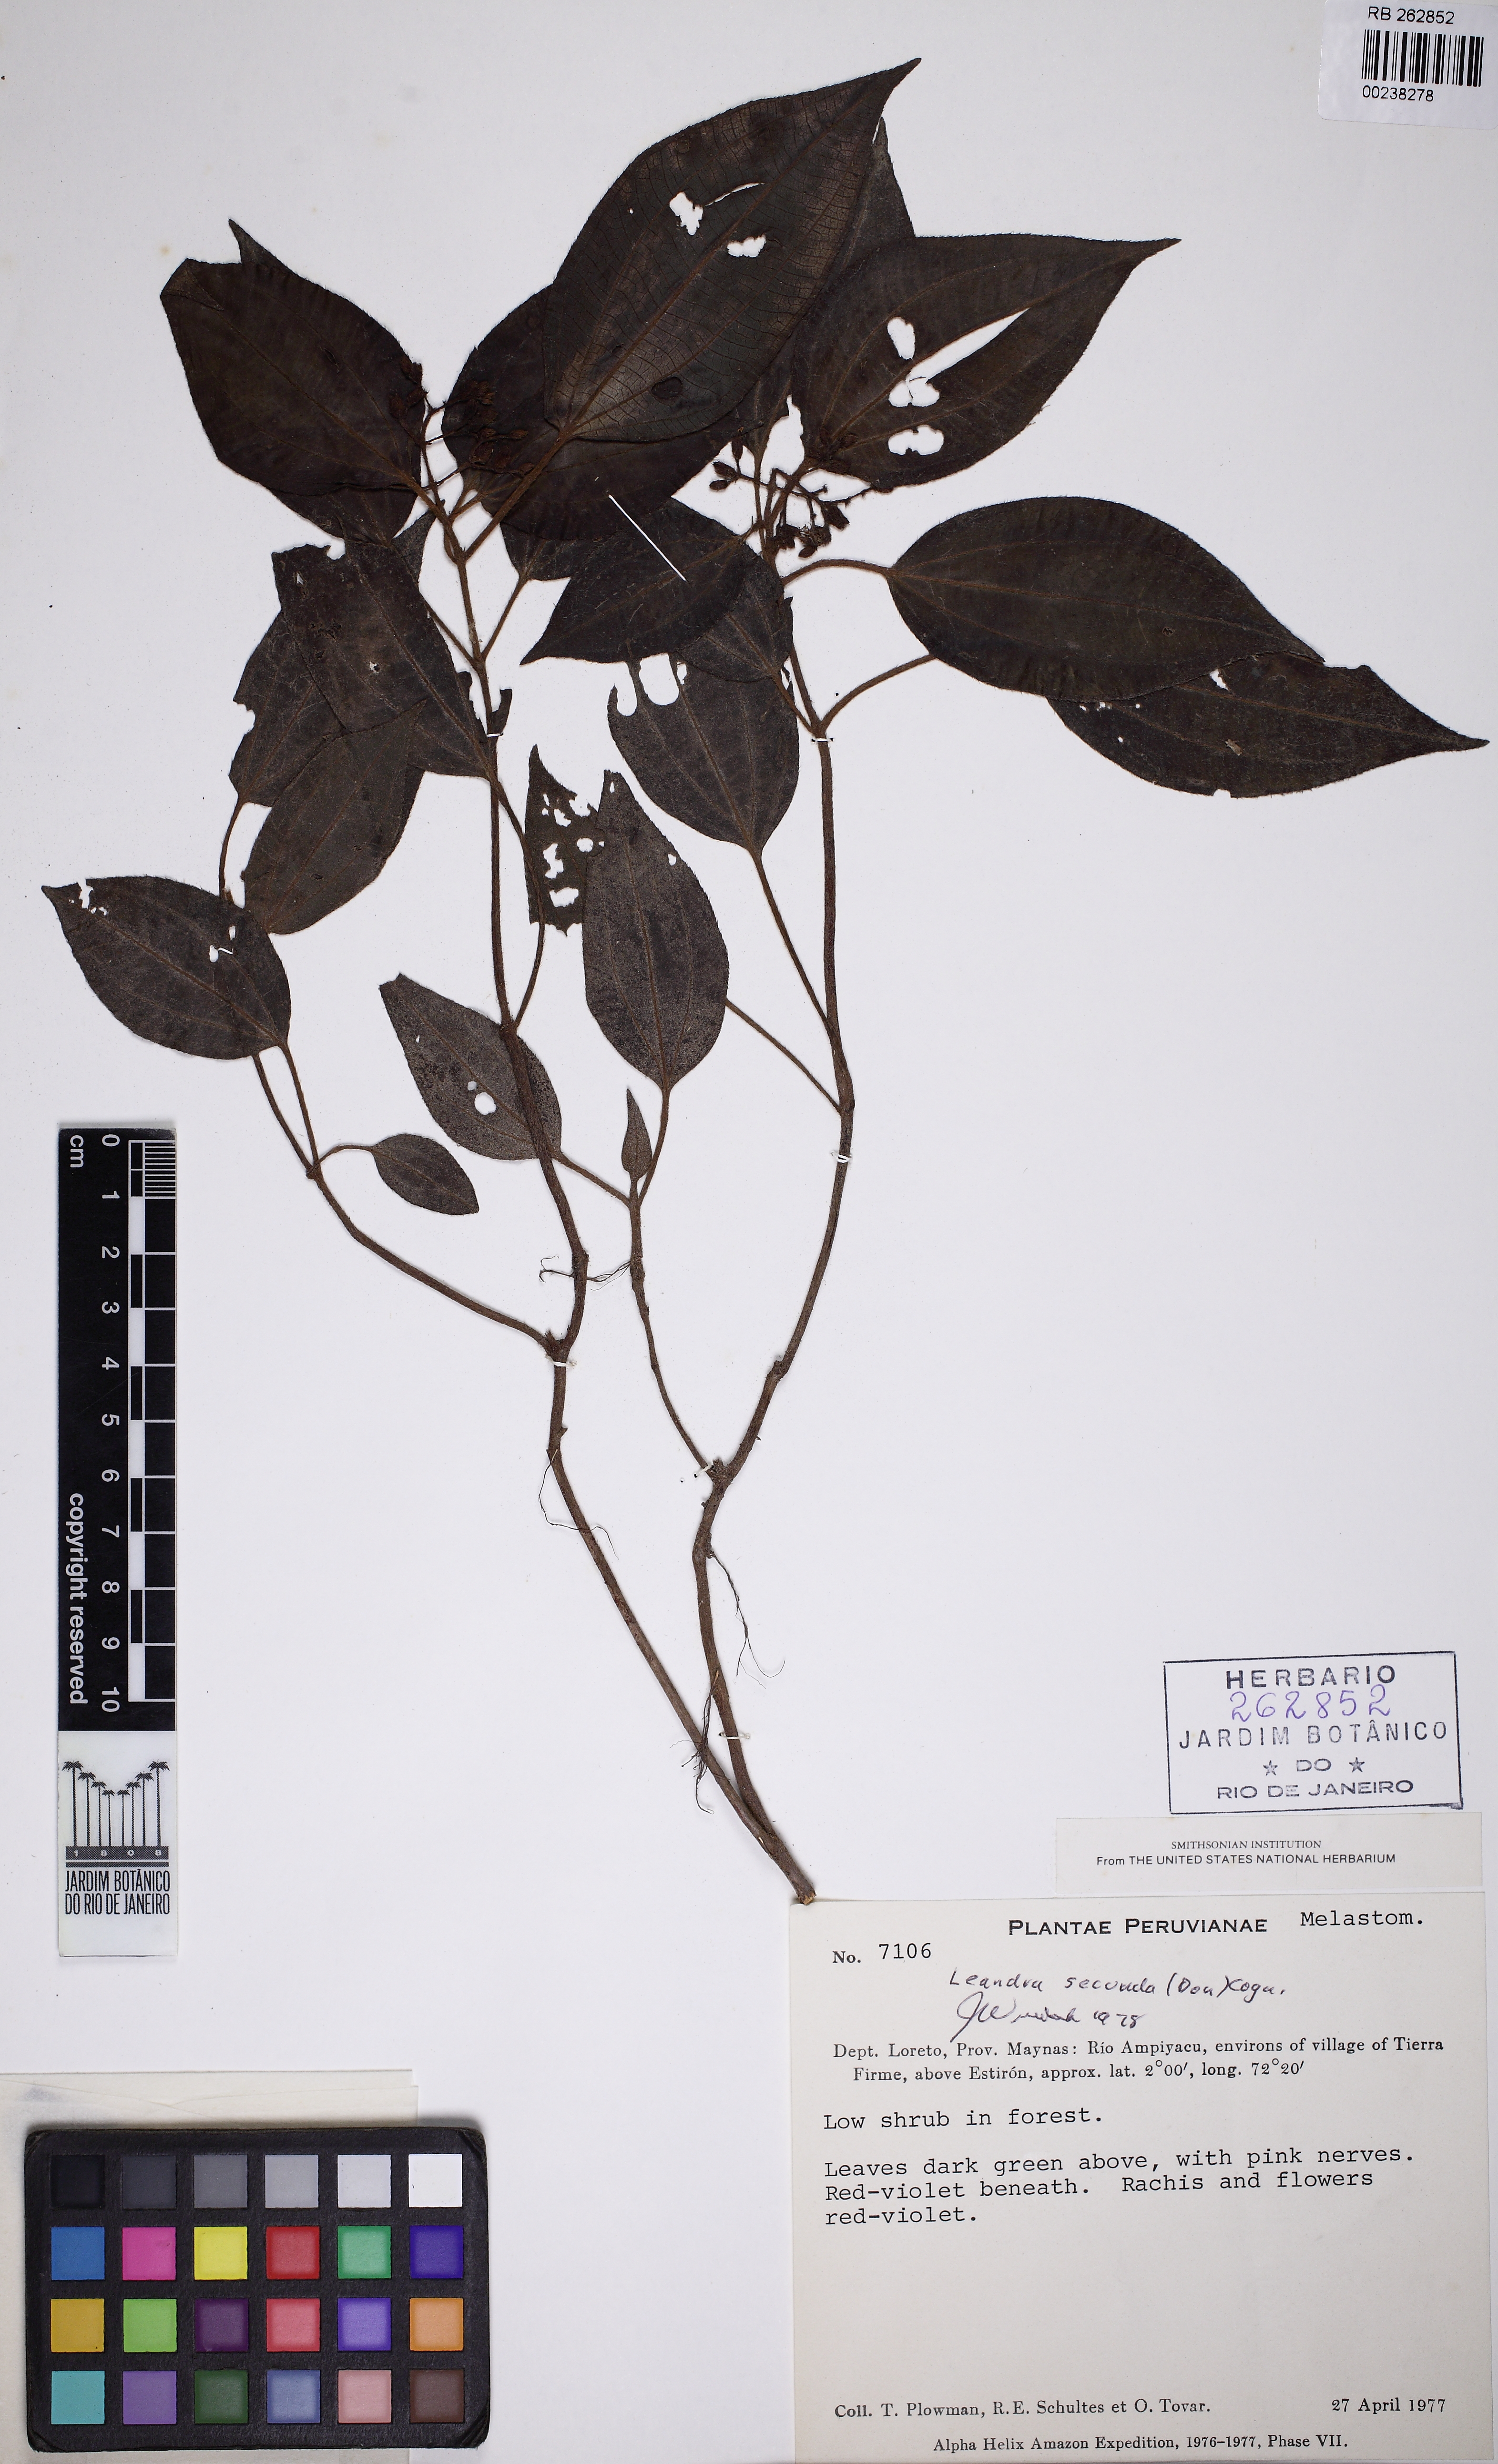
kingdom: Plantae
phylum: Tracheophyta
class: Magnoliopsida
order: Myrtales
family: Melastomataceae
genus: Miconia
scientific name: Miconia neosecunda
